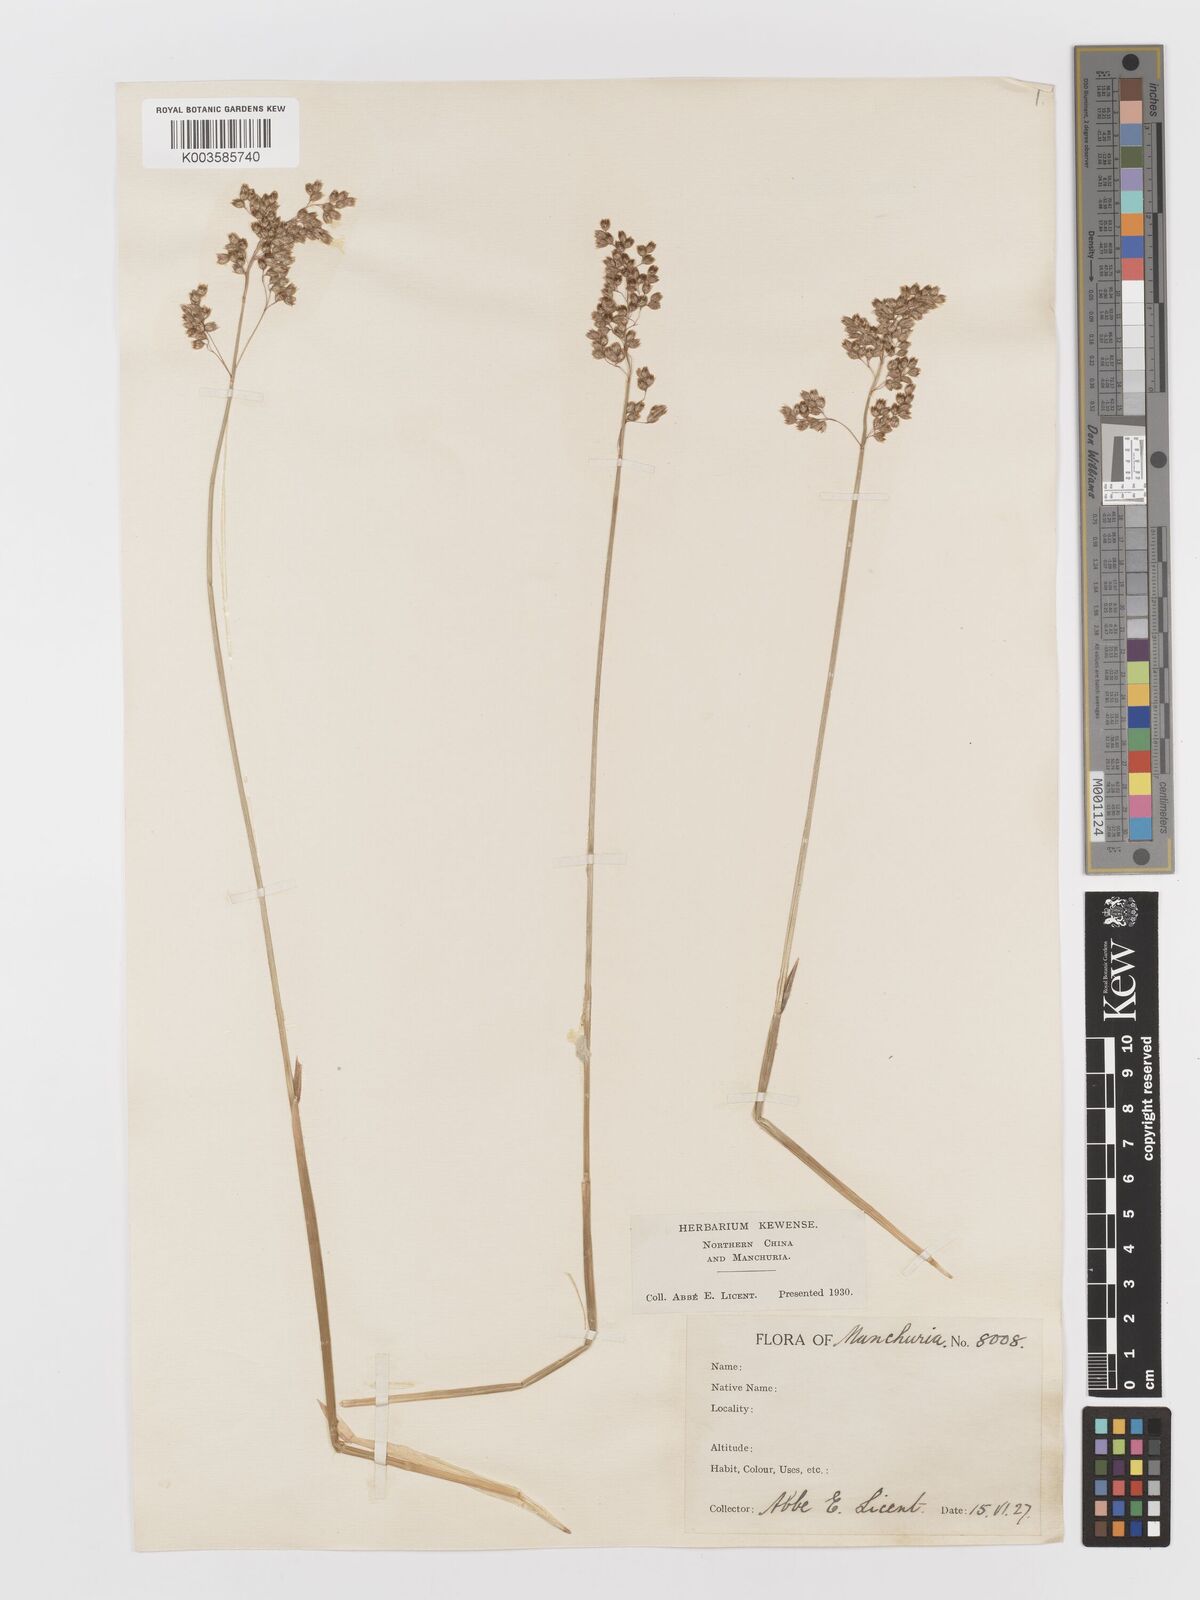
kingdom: Plantae
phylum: Tracheophyta
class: Liliopsida
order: Poales
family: Poaceae
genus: Anthoxanthum
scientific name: Anthoxanthum glabrum
